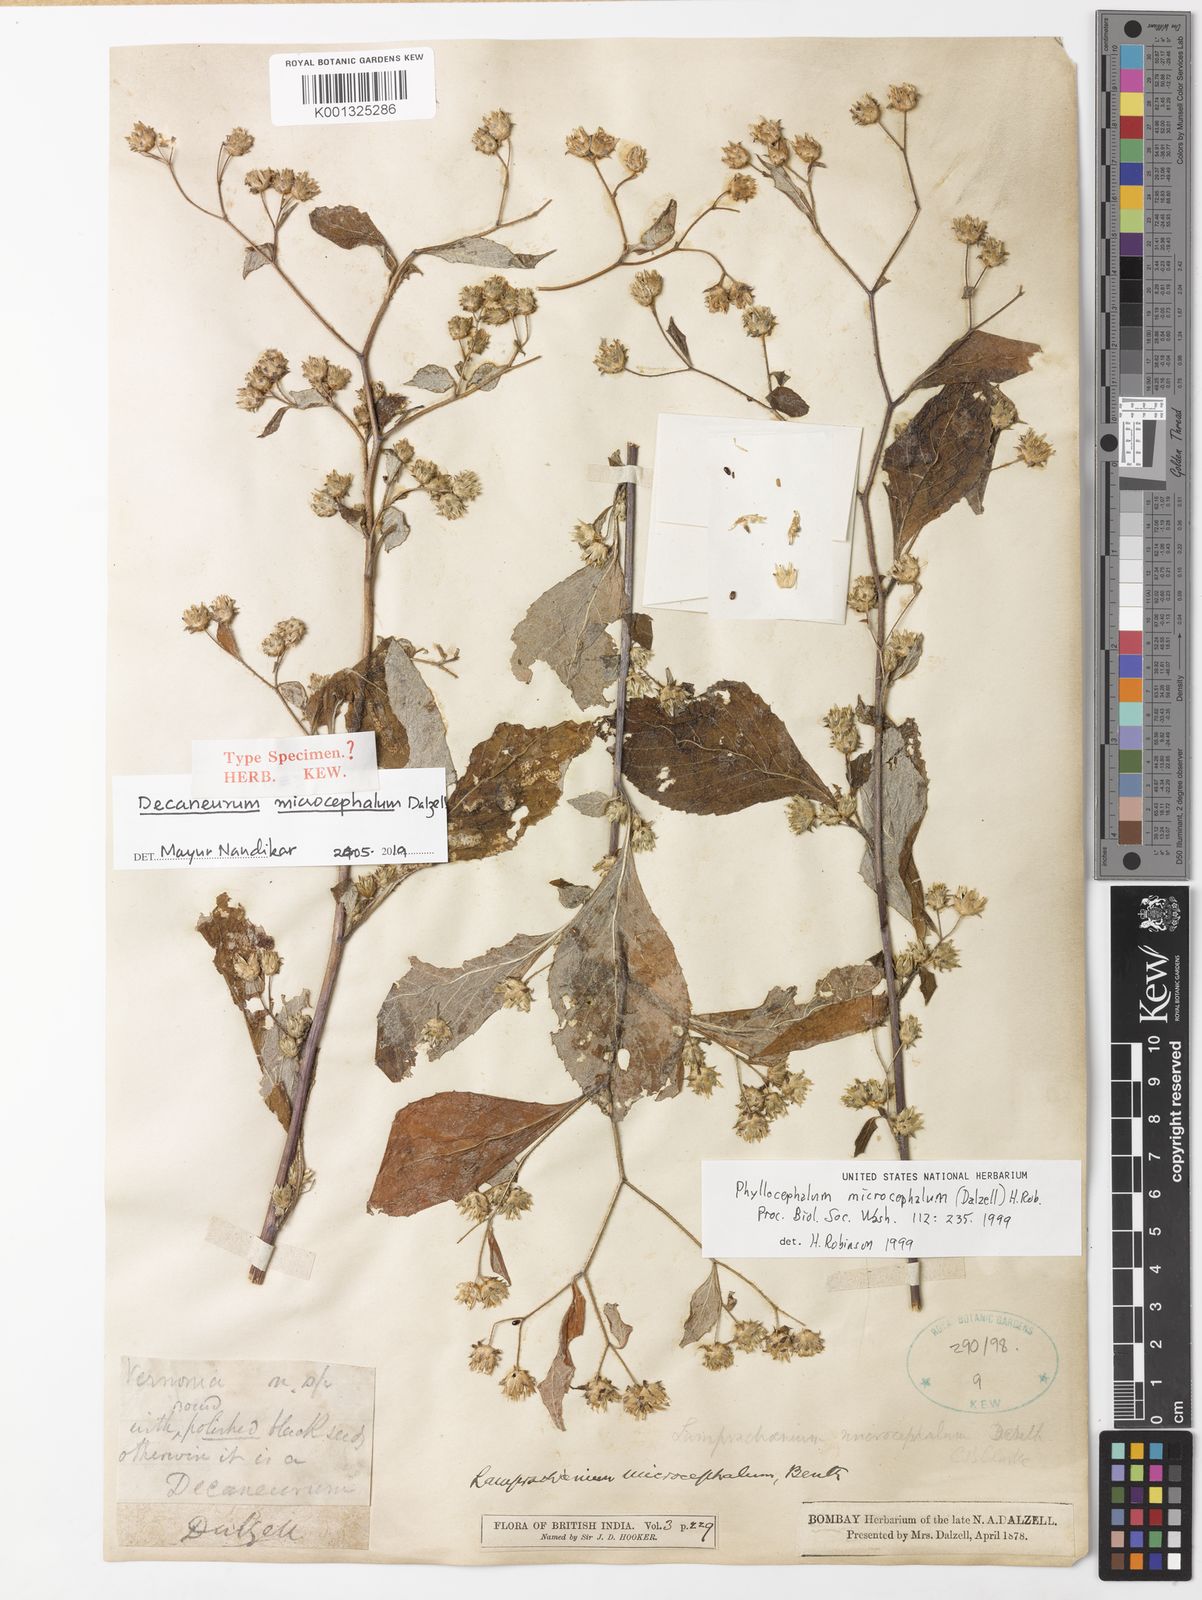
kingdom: Plantae
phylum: Tracheophyta
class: Magnoliopsida
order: Asterales
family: Asteraceae
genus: Phyllocephalum
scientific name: Phyllocephalum microcephalum
